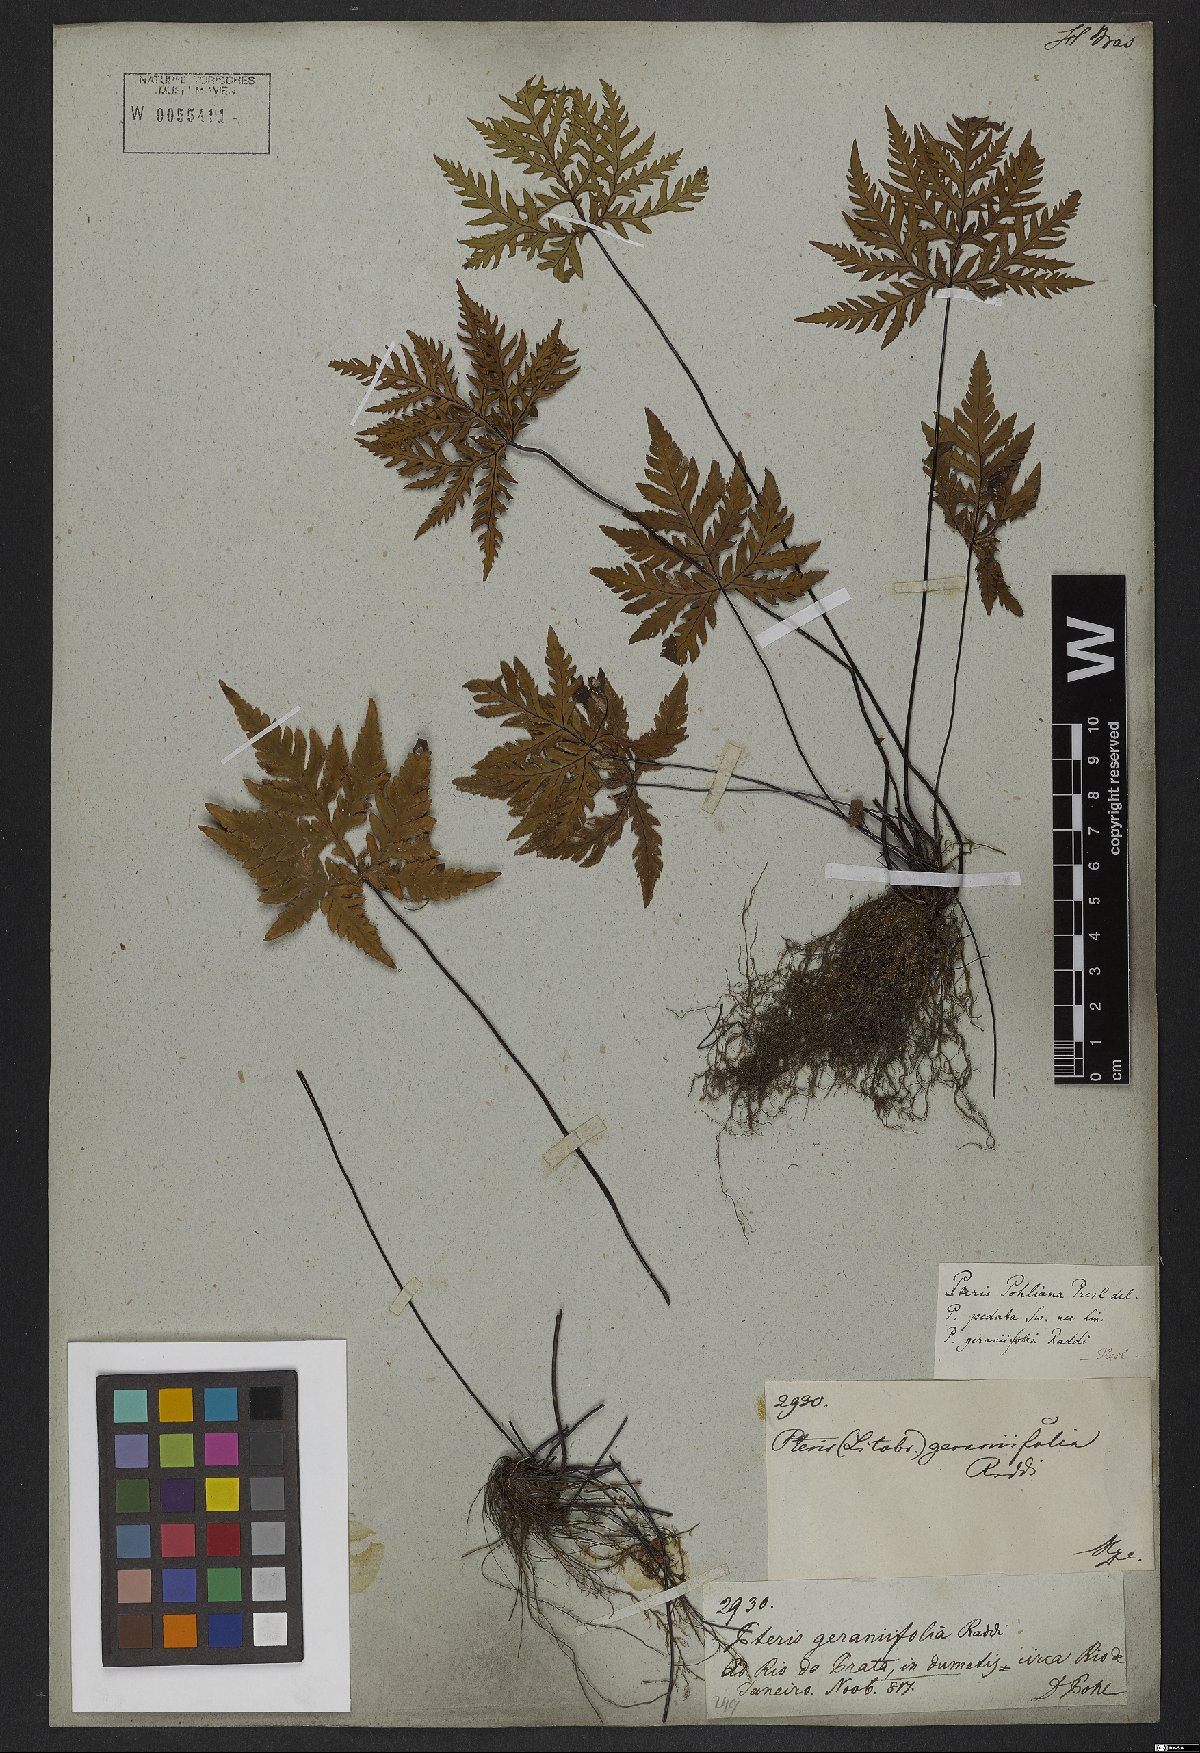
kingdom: Plantae
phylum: Tracheophyta
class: Polypodiopsida
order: Polypodiales
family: Pteridaceae
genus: Doryopteris
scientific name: Doryopteris concolor
